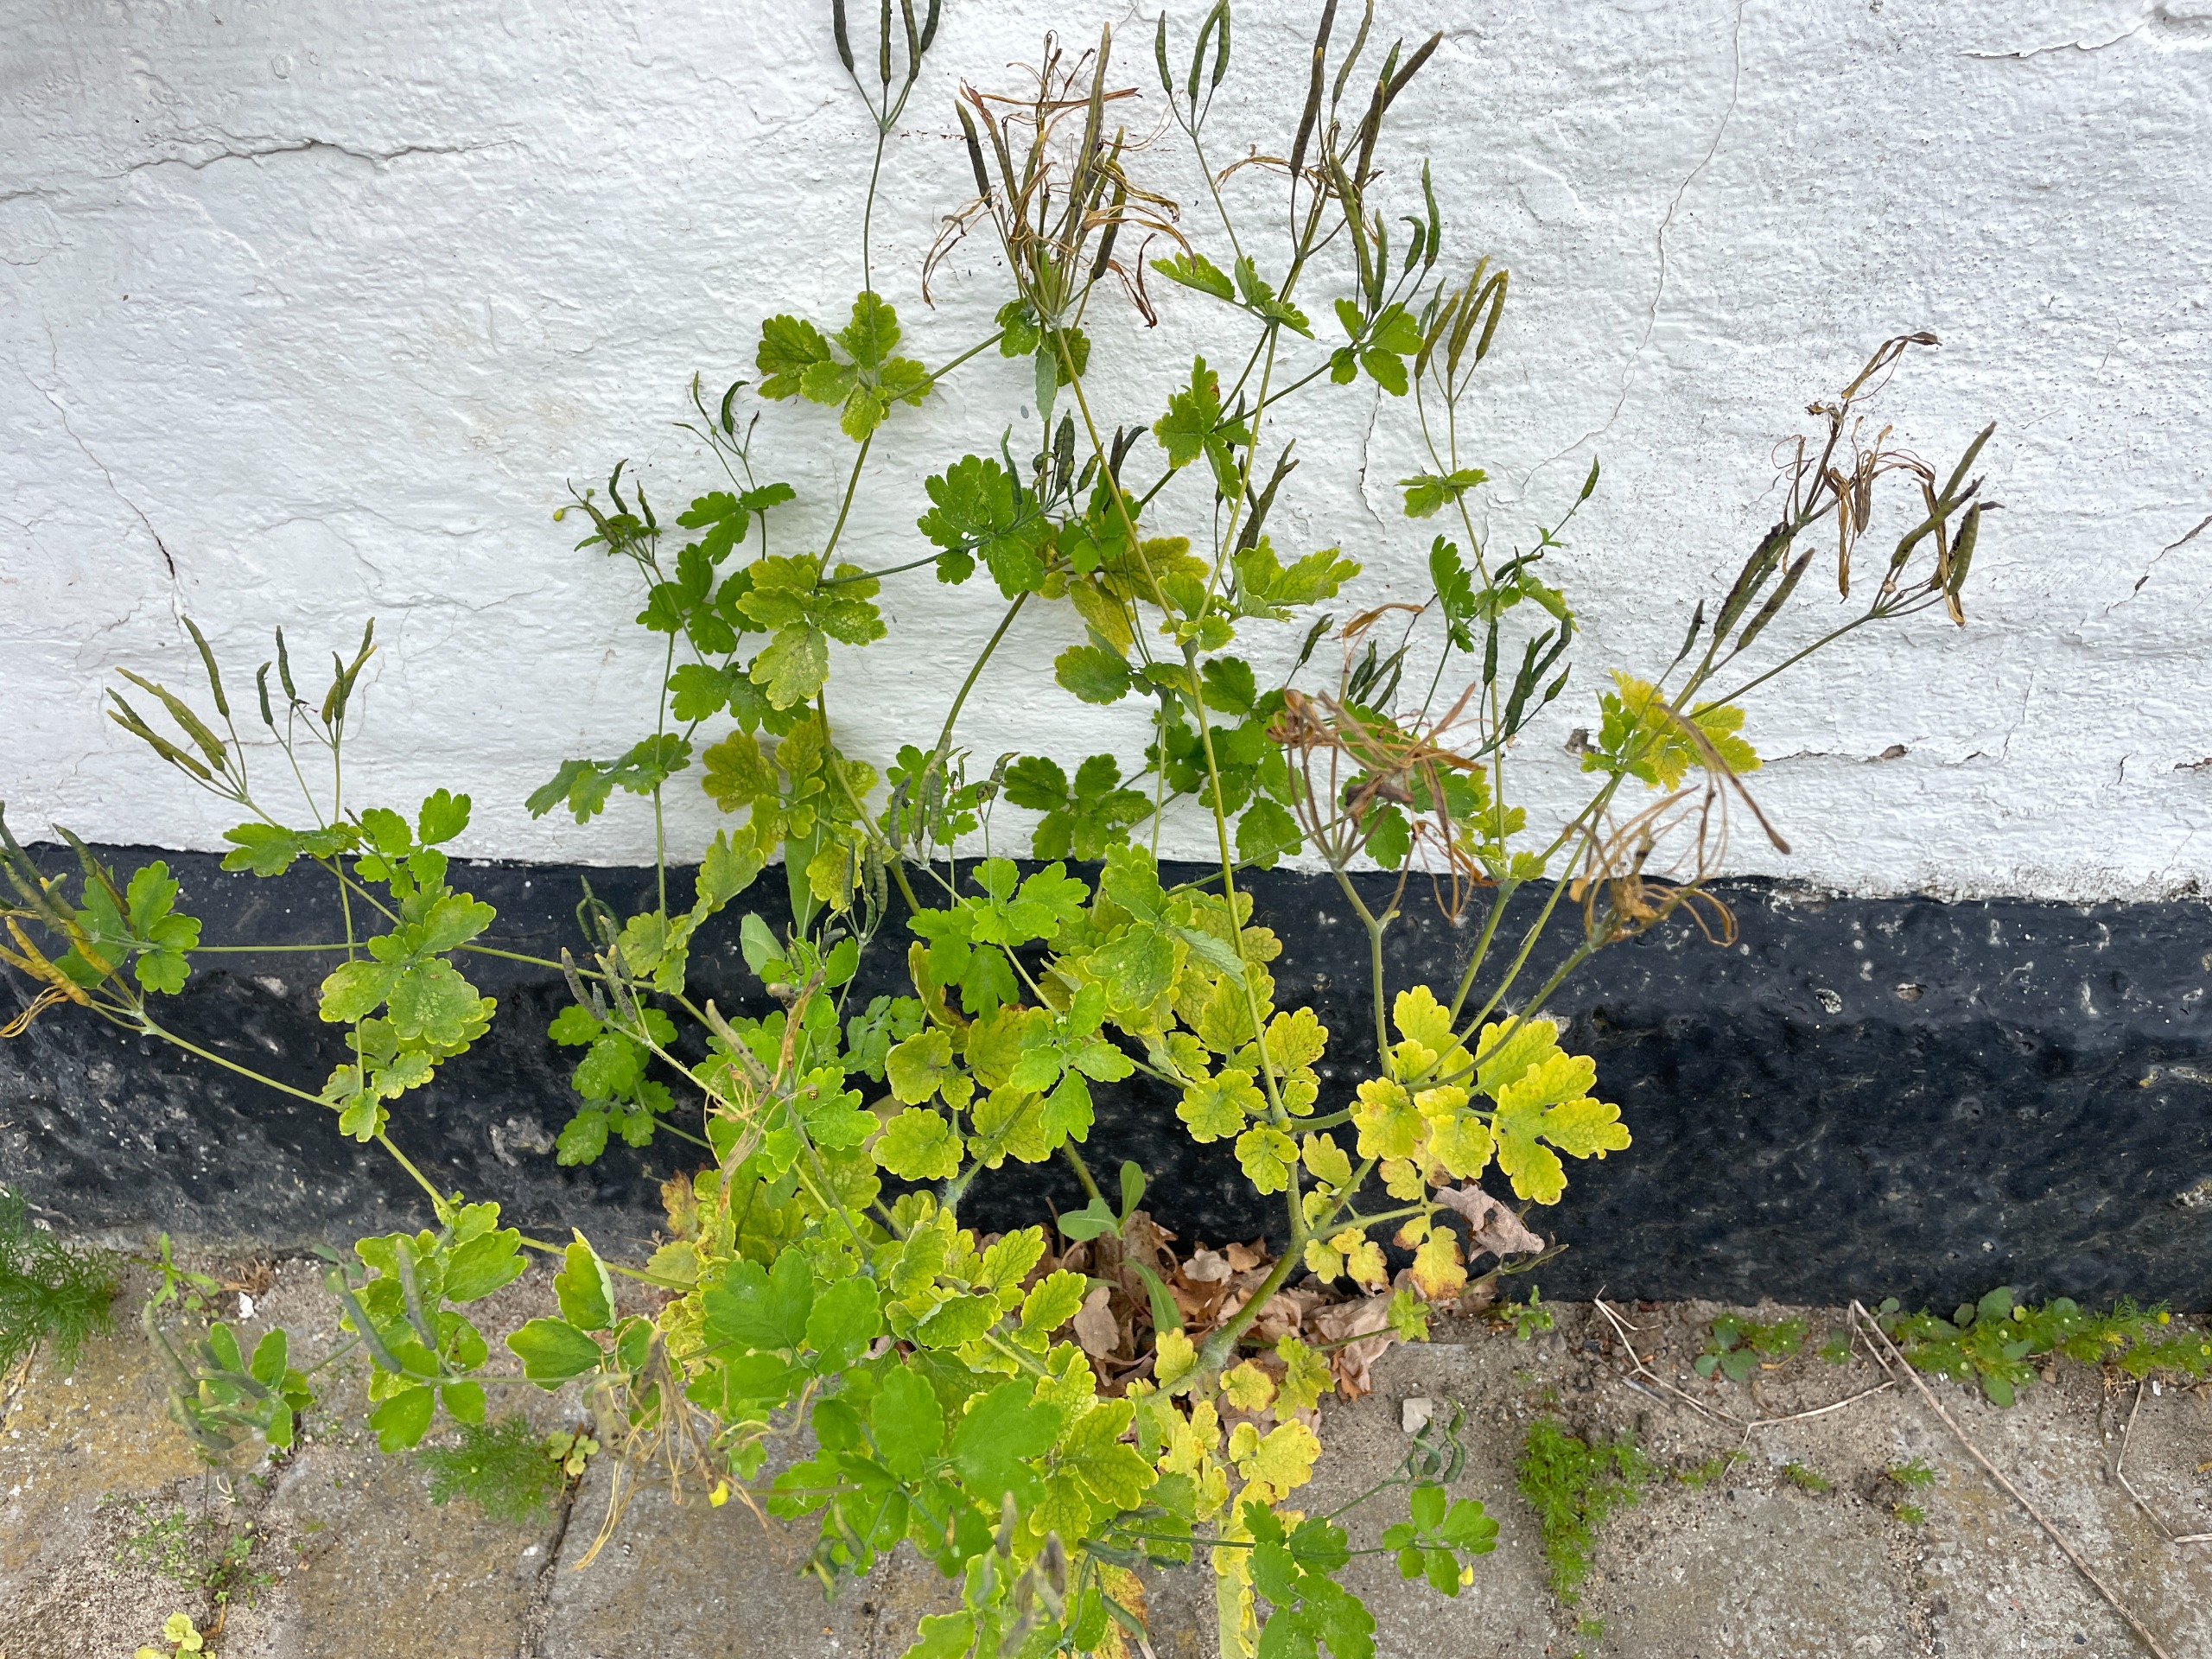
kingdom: Plantae
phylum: Tracheophyta
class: Magnoliopsida
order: Ranunculales
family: Papaveraceae
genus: Chelidonium
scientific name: Chelidonium majus
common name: Svaleurt
